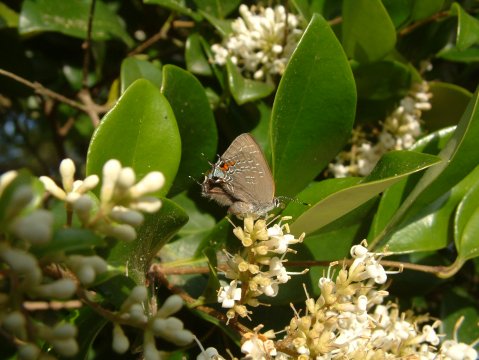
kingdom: Animalia
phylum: Arthropoda
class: Insecta
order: Lepidoptera
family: Lycaenidae
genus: Satyrium
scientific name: Satyrium calanus
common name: Banded Hairstreak
